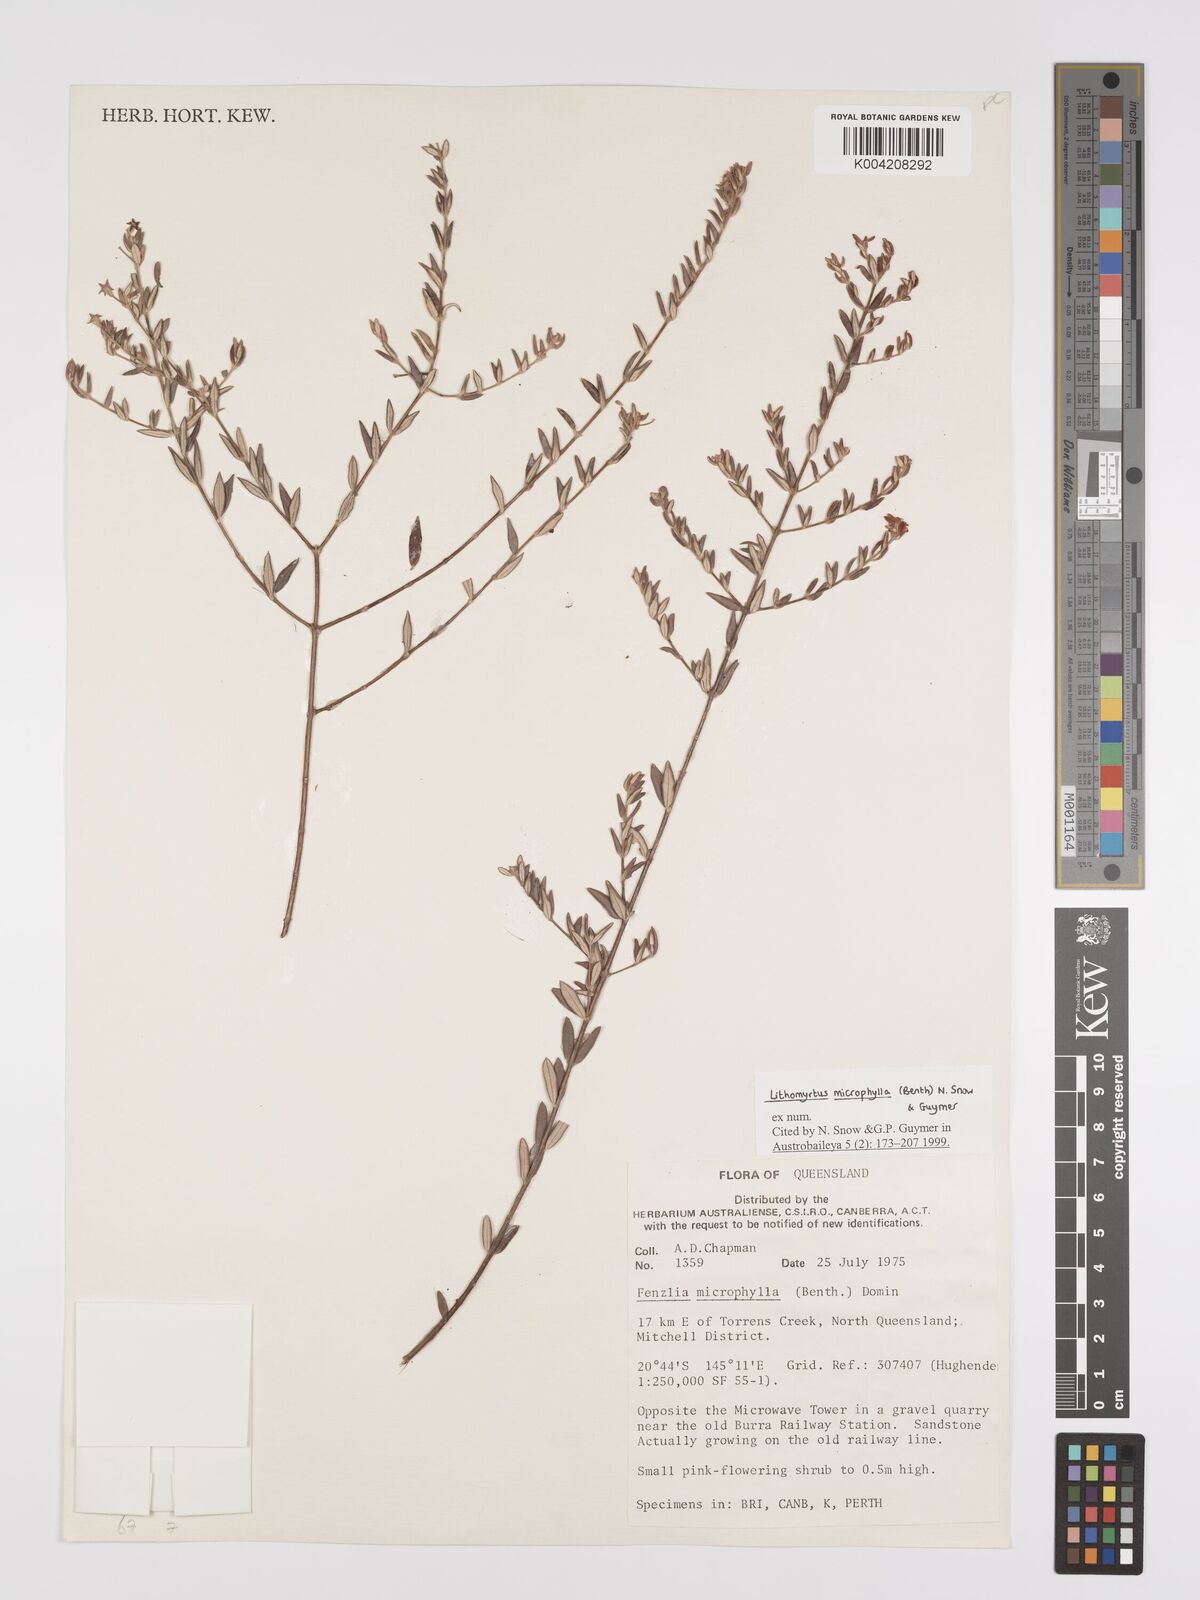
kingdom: Plantae
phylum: Tracheophyta
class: Magnoliopsida
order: Myrtales
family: Myrtaceae
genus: Lithomyrtus
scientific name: Lithomyrtus microphylla
